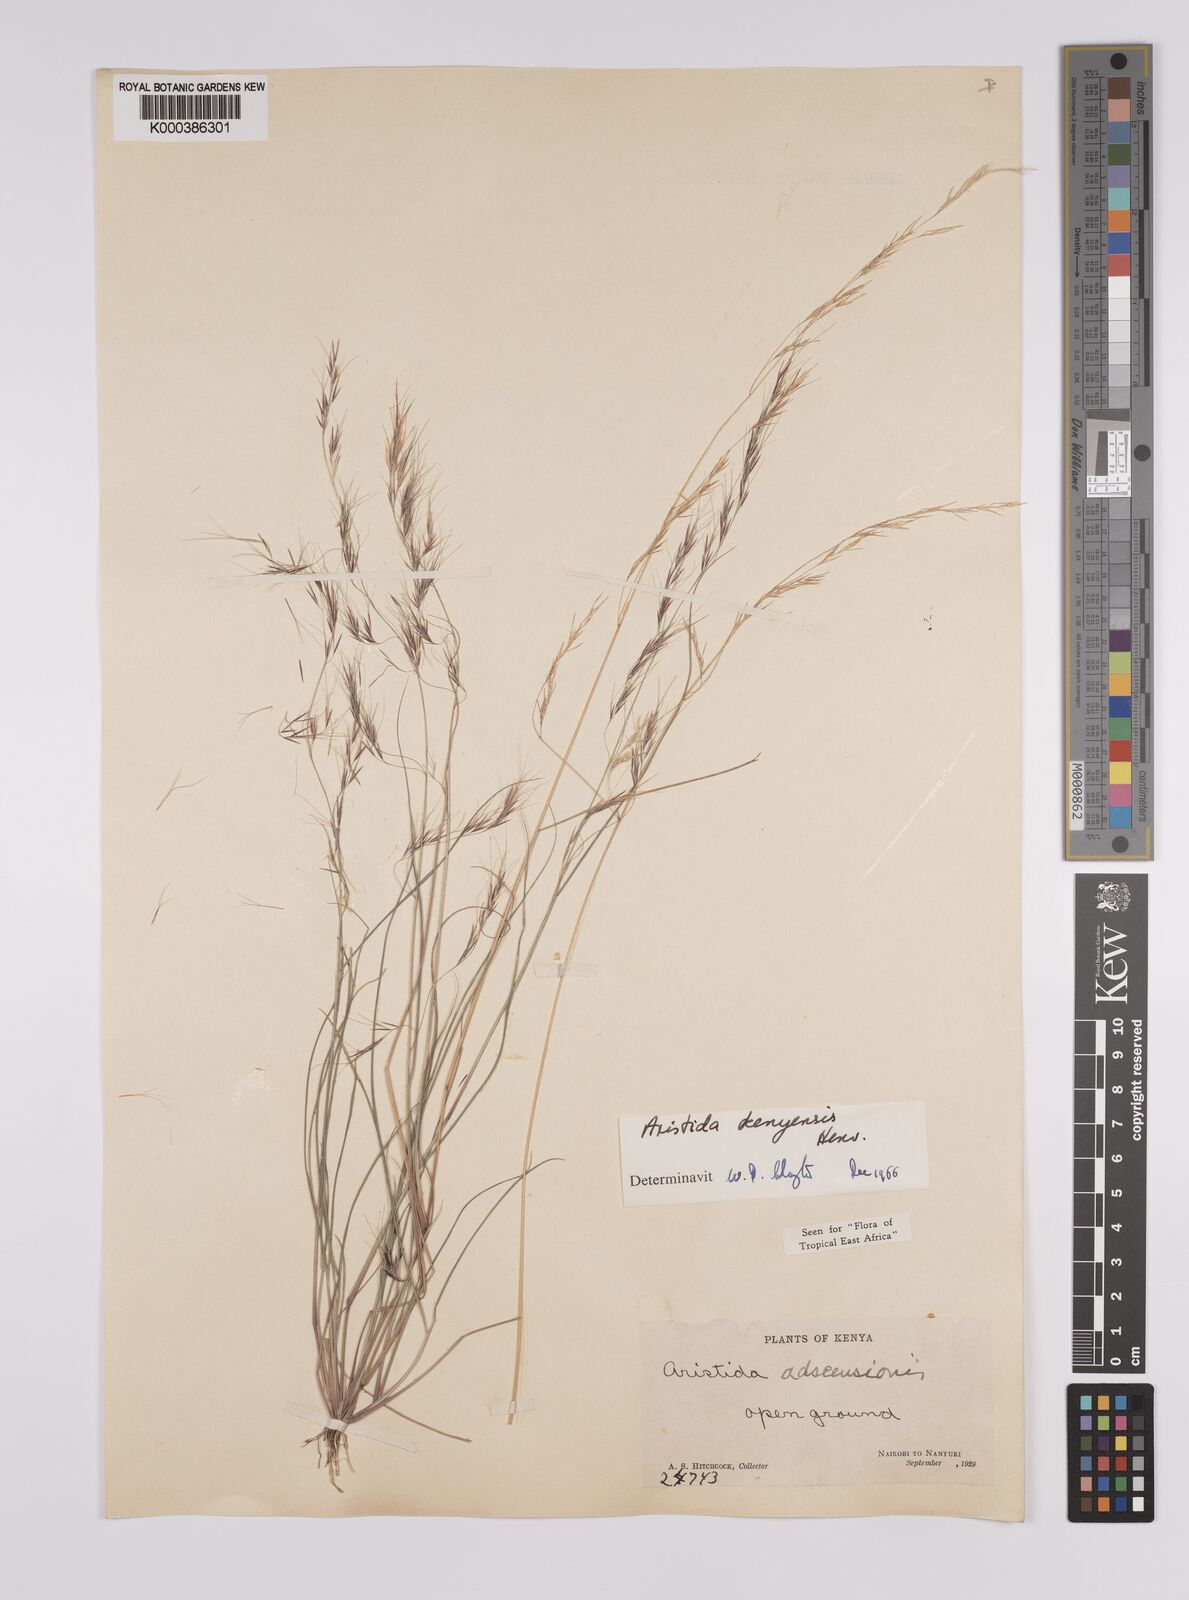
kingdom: Plantae
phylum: Tracheophyta
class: Liliopsida
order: Poales
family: Poaceae
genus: Aristida
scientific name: Aristida kenyensis
